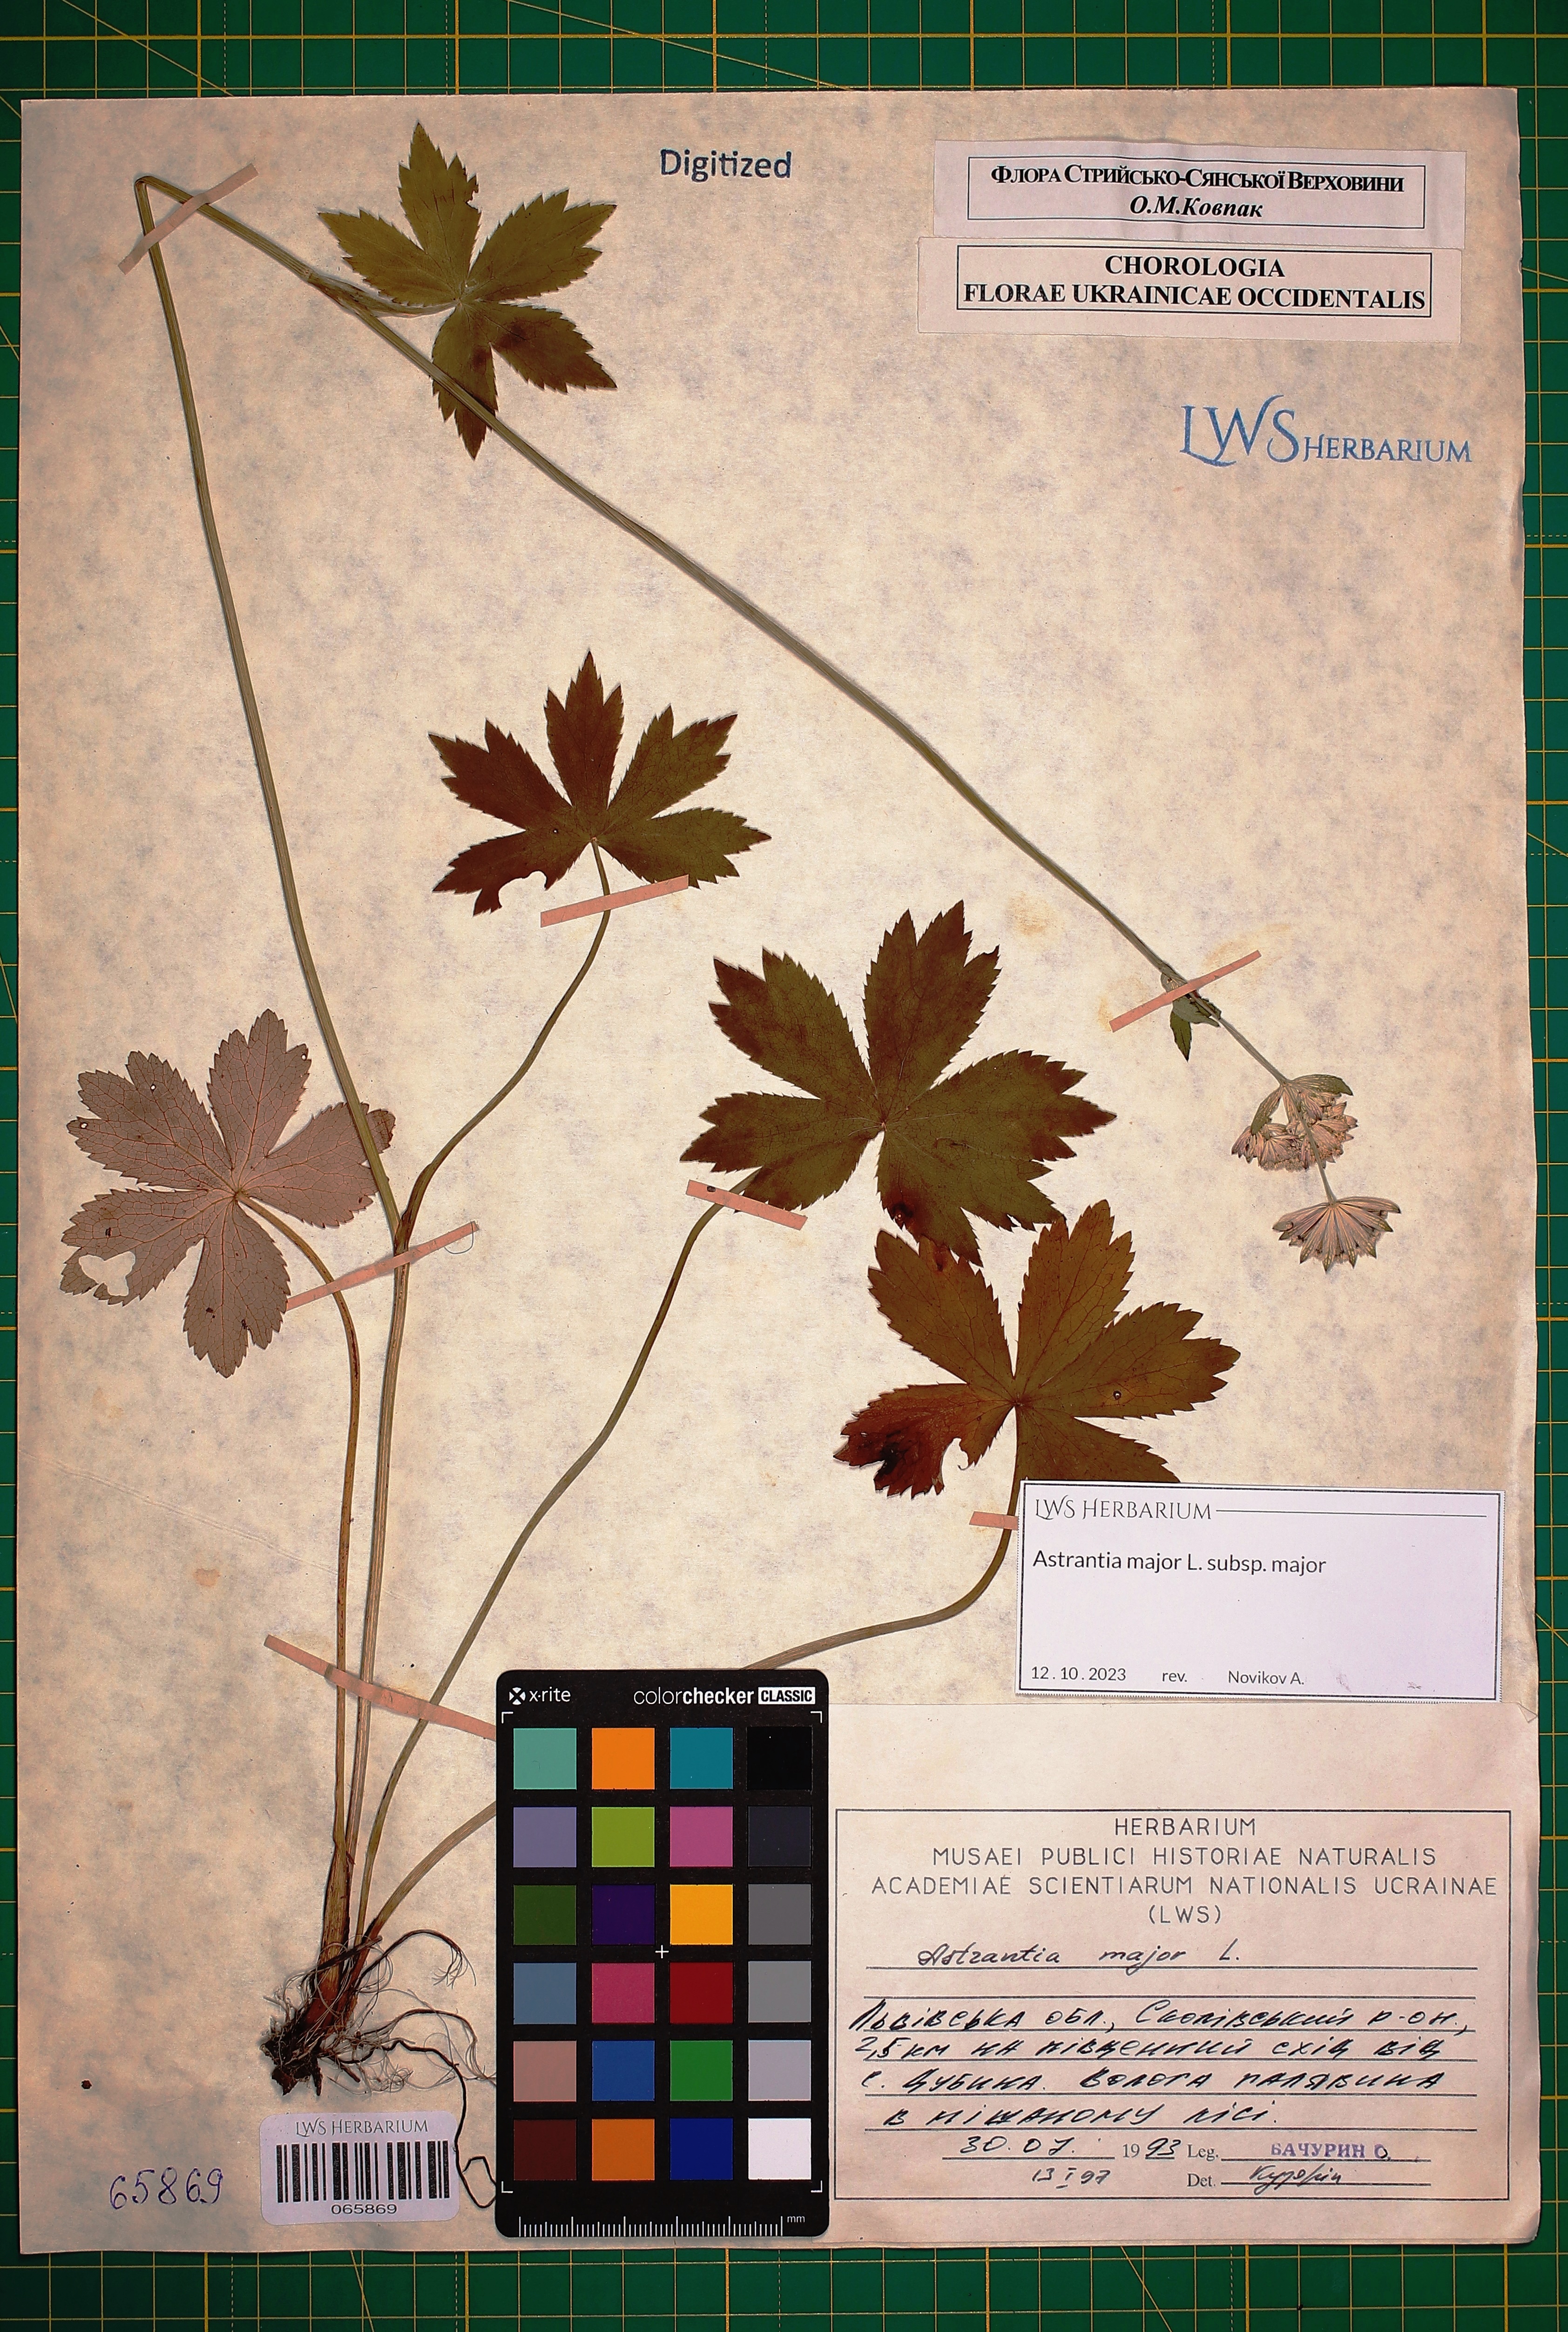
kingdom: Plantae
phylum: Tracheophyta
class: Magnoliopsida
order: Apiales
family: Apiaceae
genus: Astrantia
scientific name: Astrantia major
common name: Greater masterwort
